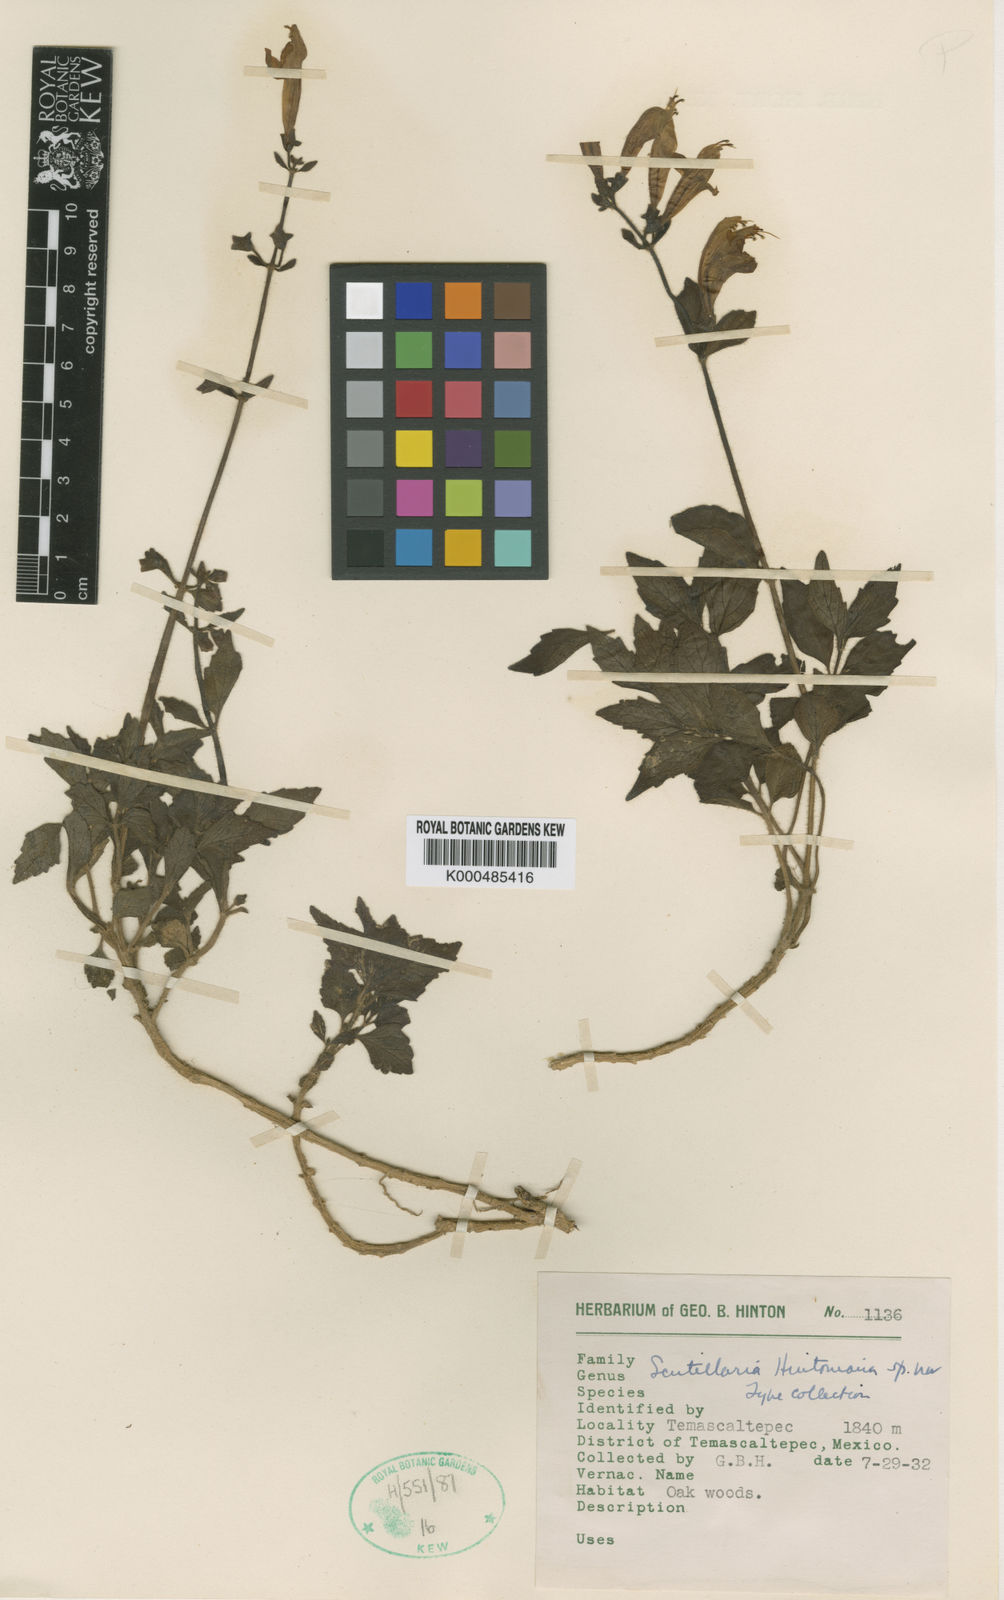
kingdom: Plantae
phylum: Tracheophyta
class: Magnoliopsida
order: Lamiales
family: Lamiaceae
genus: Scutellaria
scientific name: Scutellaria hintoniana
